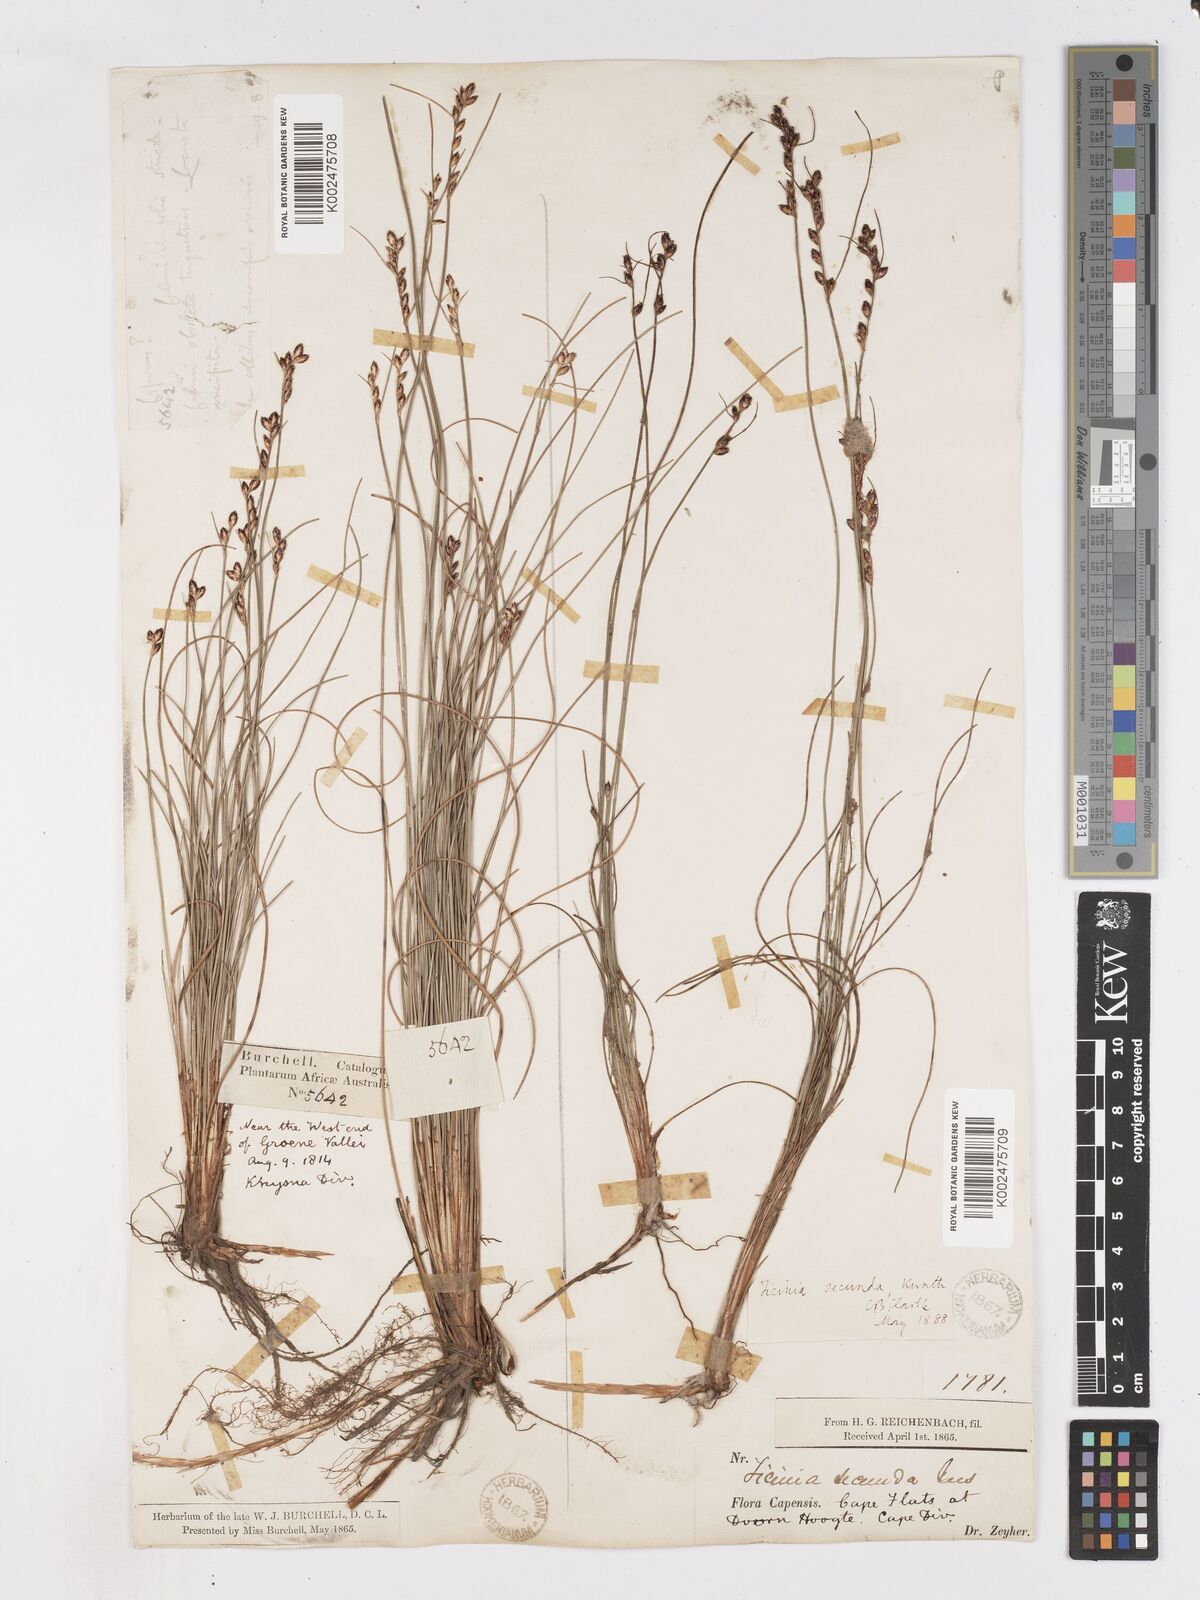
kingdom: Plantae
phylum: Tracheophyta
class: Liliopsida
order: Poales
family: Cyperaceae
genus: Ficinia
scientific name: Ficinia secunda
